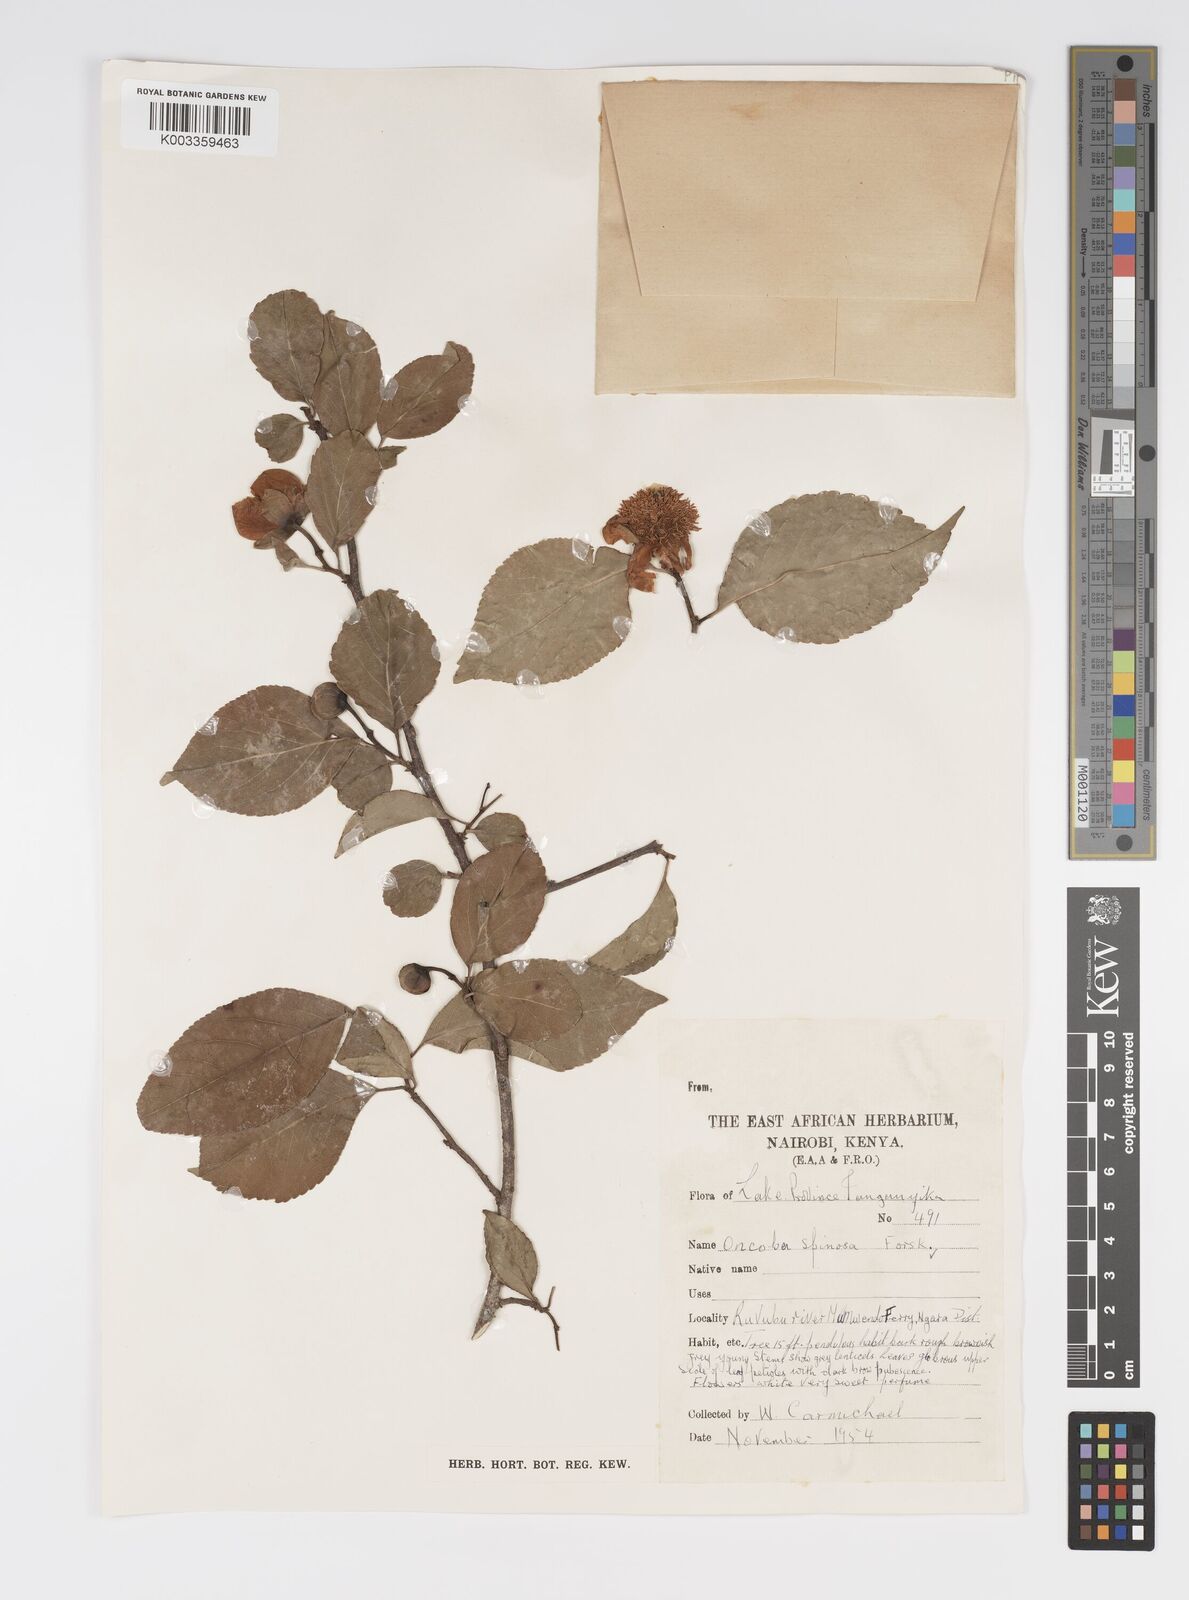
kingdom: Plantae
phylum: Tracheophyta
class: Magnoliopsida
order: Malpighiales
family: Salicaceae
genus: Oncoba
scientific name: Oncoba spinosa
